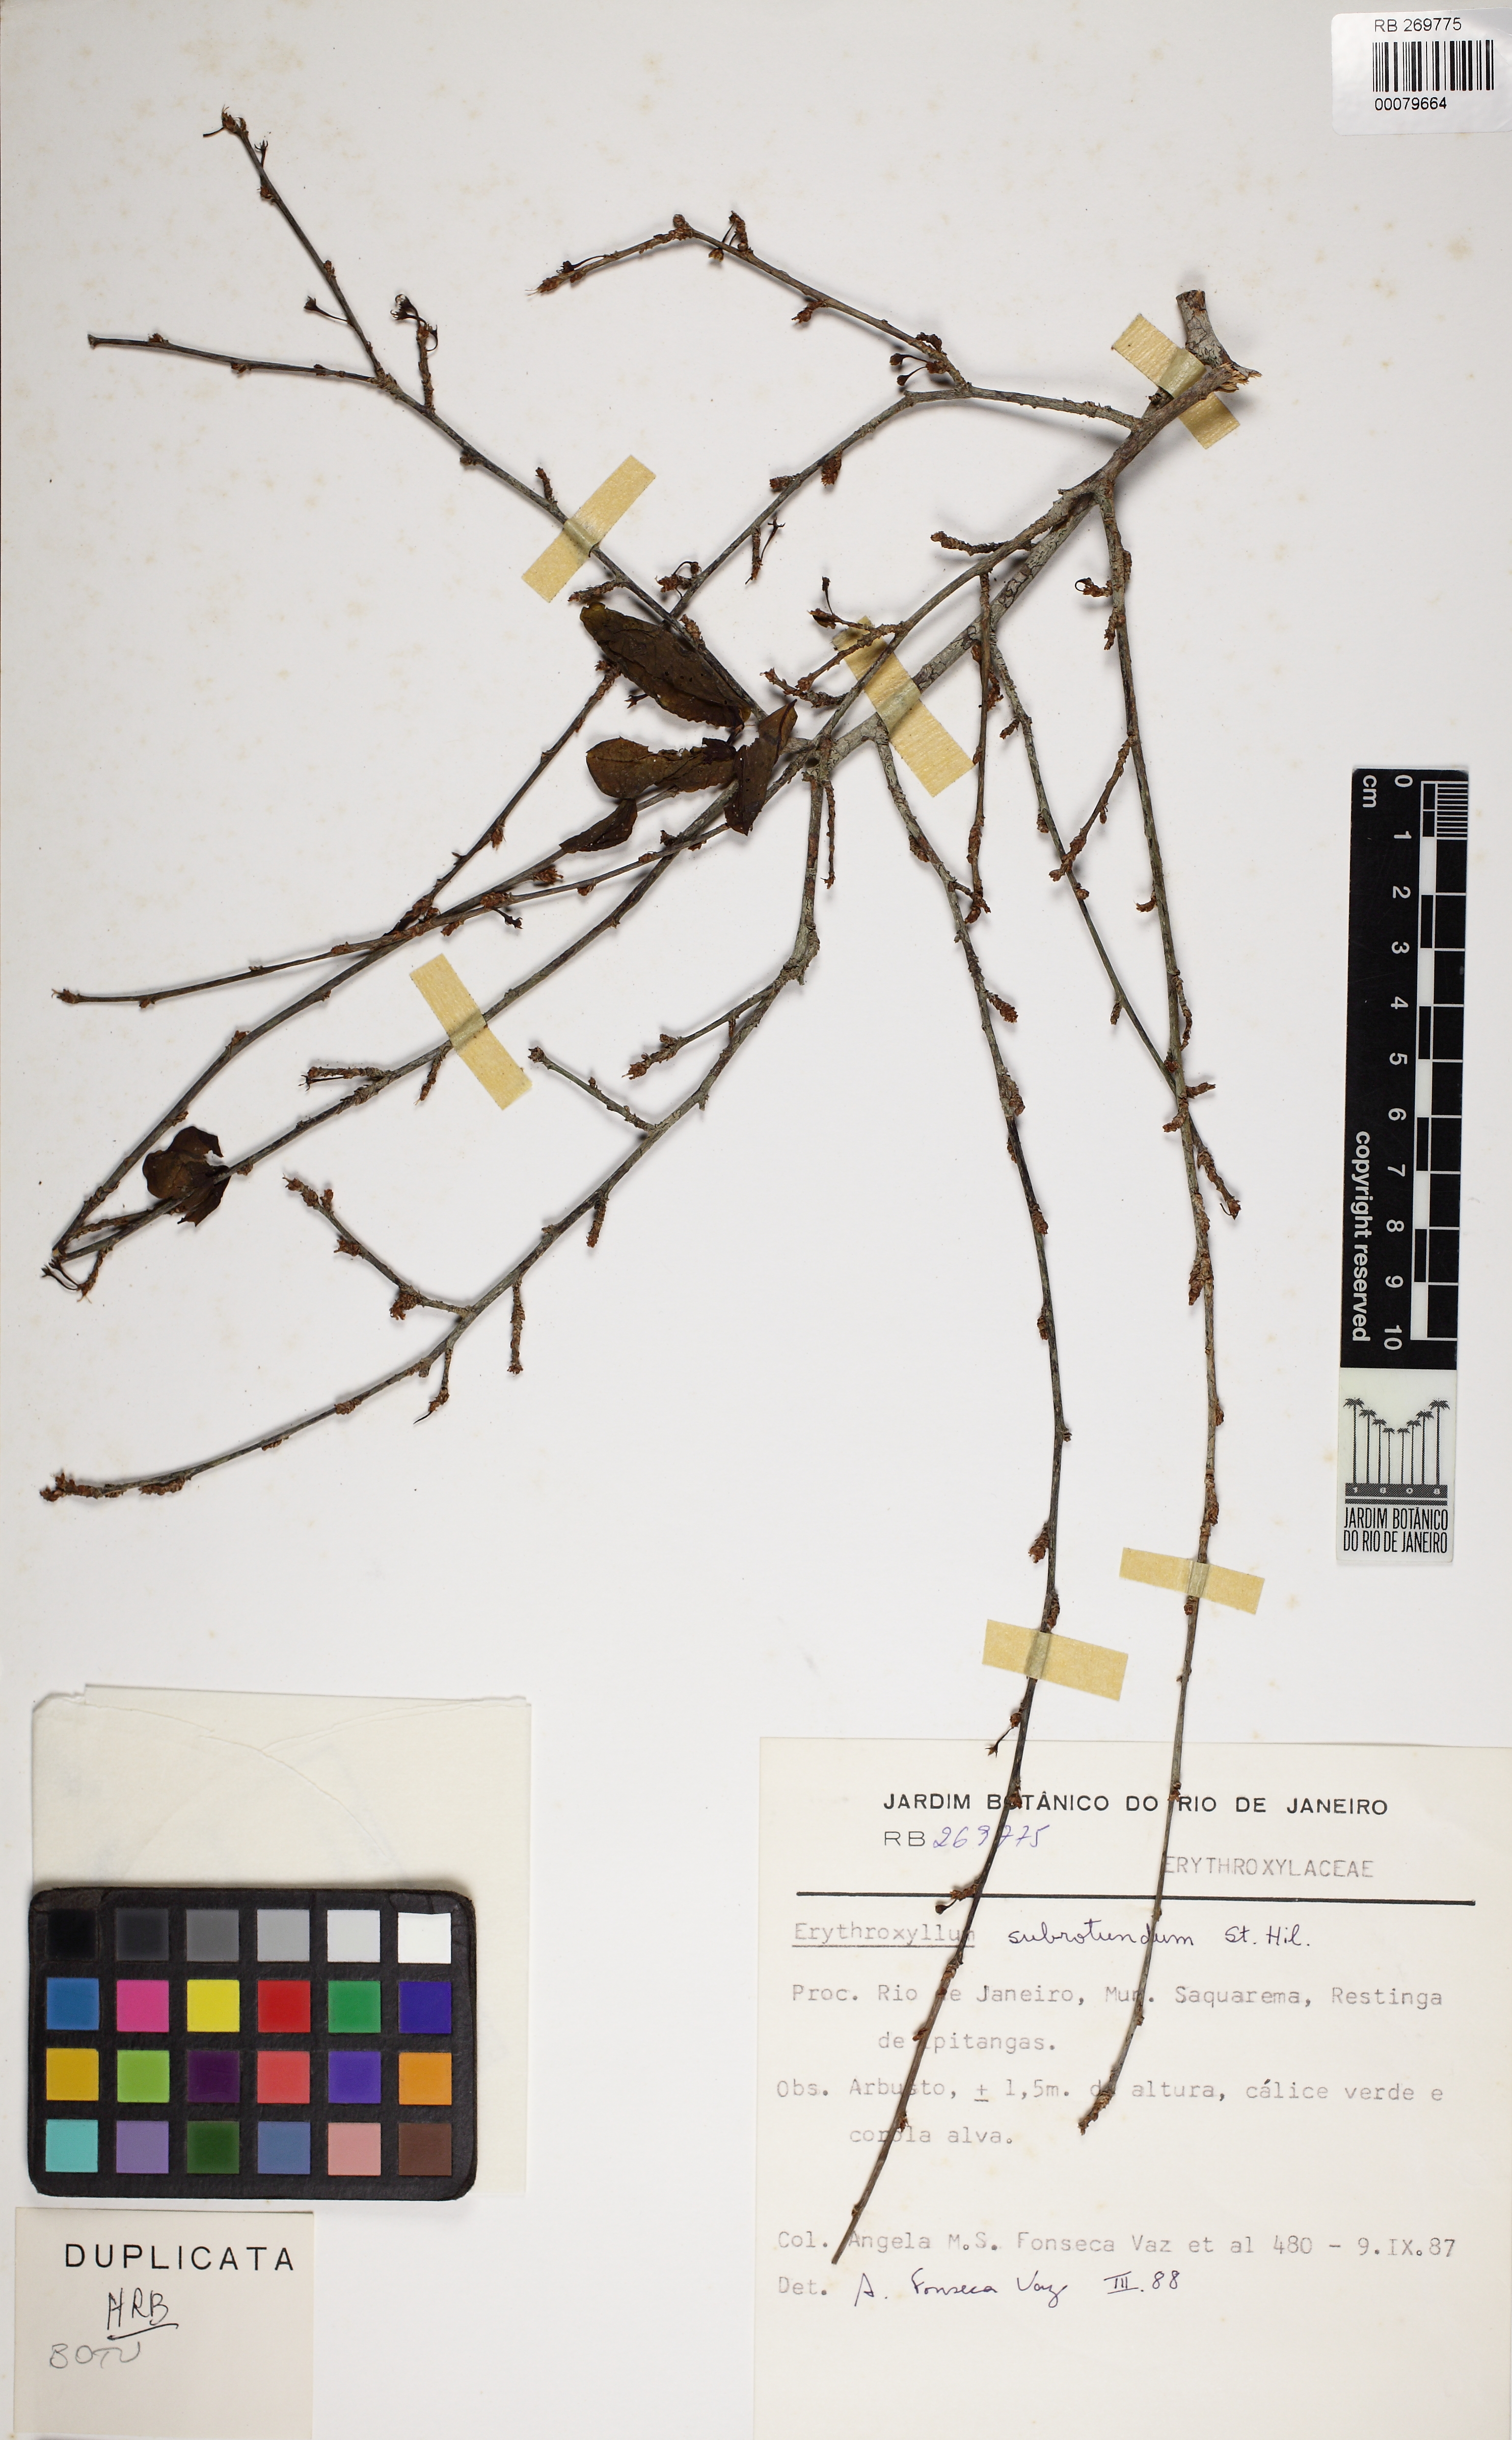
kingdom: Plantae
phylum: Tracheophyta
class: Magnoliopsida
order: Malpighiales
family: Erythroxylaceae
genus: Erythroxylum
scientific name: Erythroxylum subrotundum
